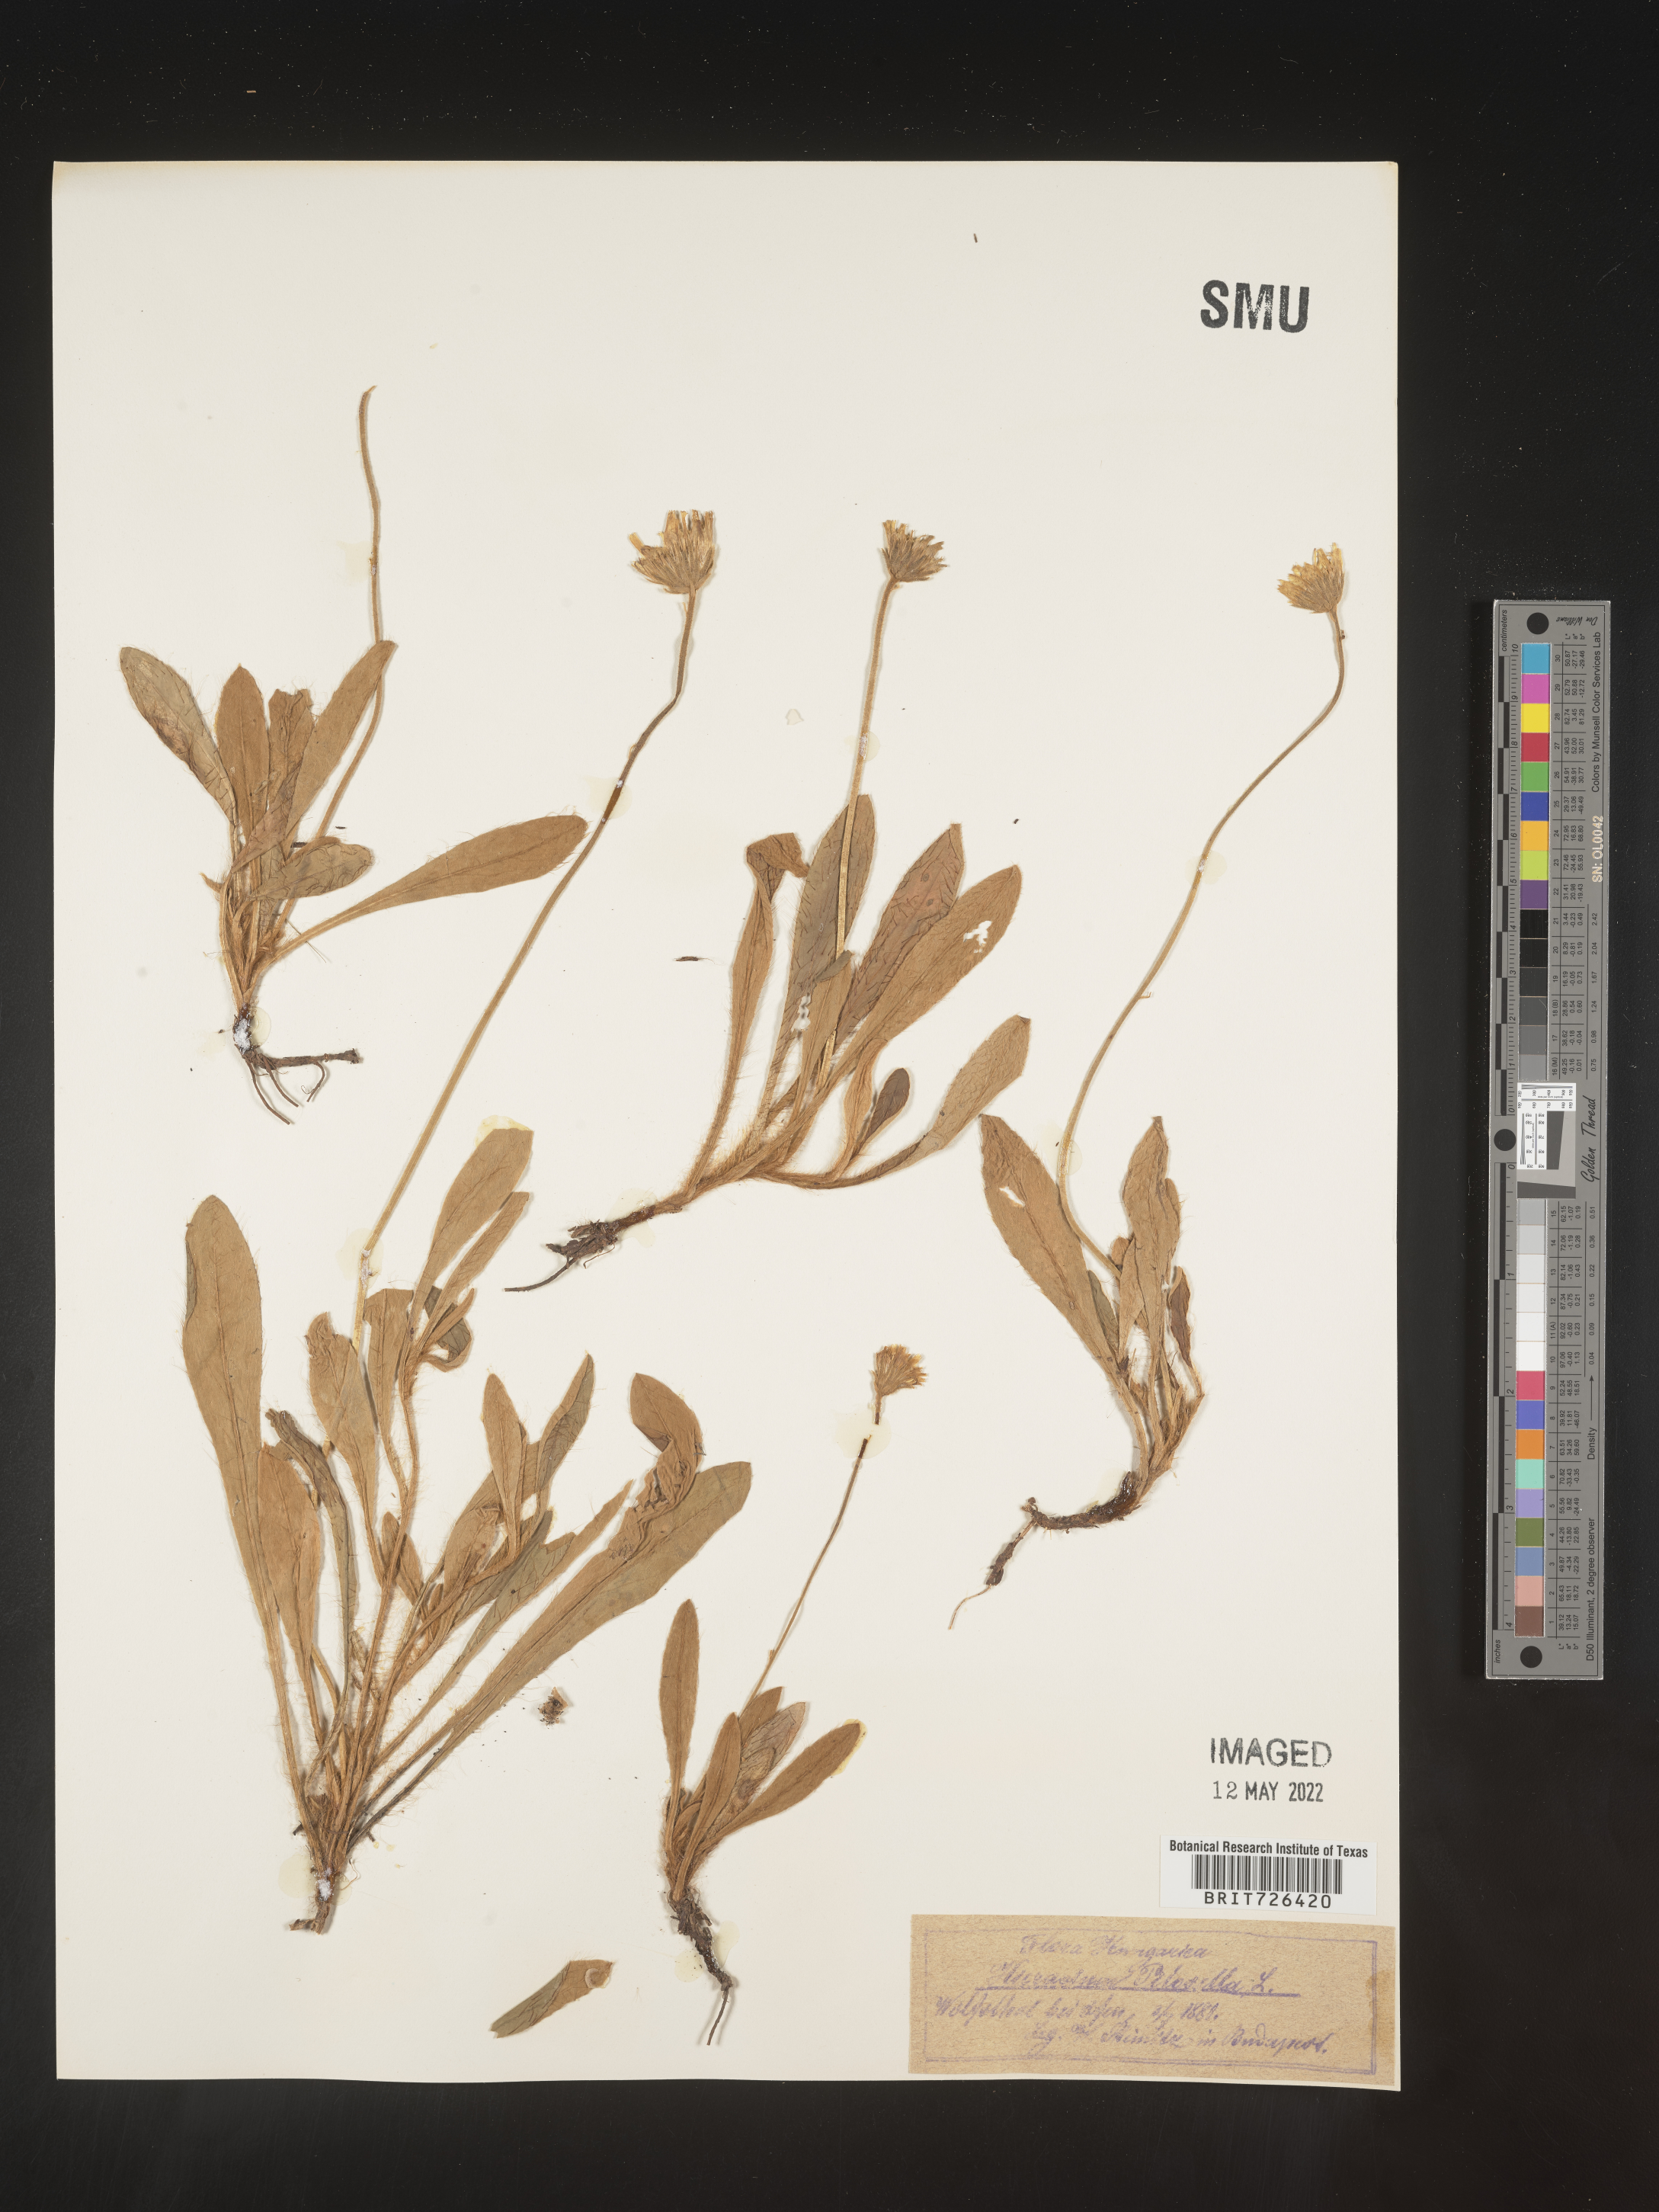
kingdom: Plantae
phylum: Tracheophyta
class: Magnoliopsida
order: Asterales
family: Asteraceae
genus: Hieracium
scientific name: Hieracium
